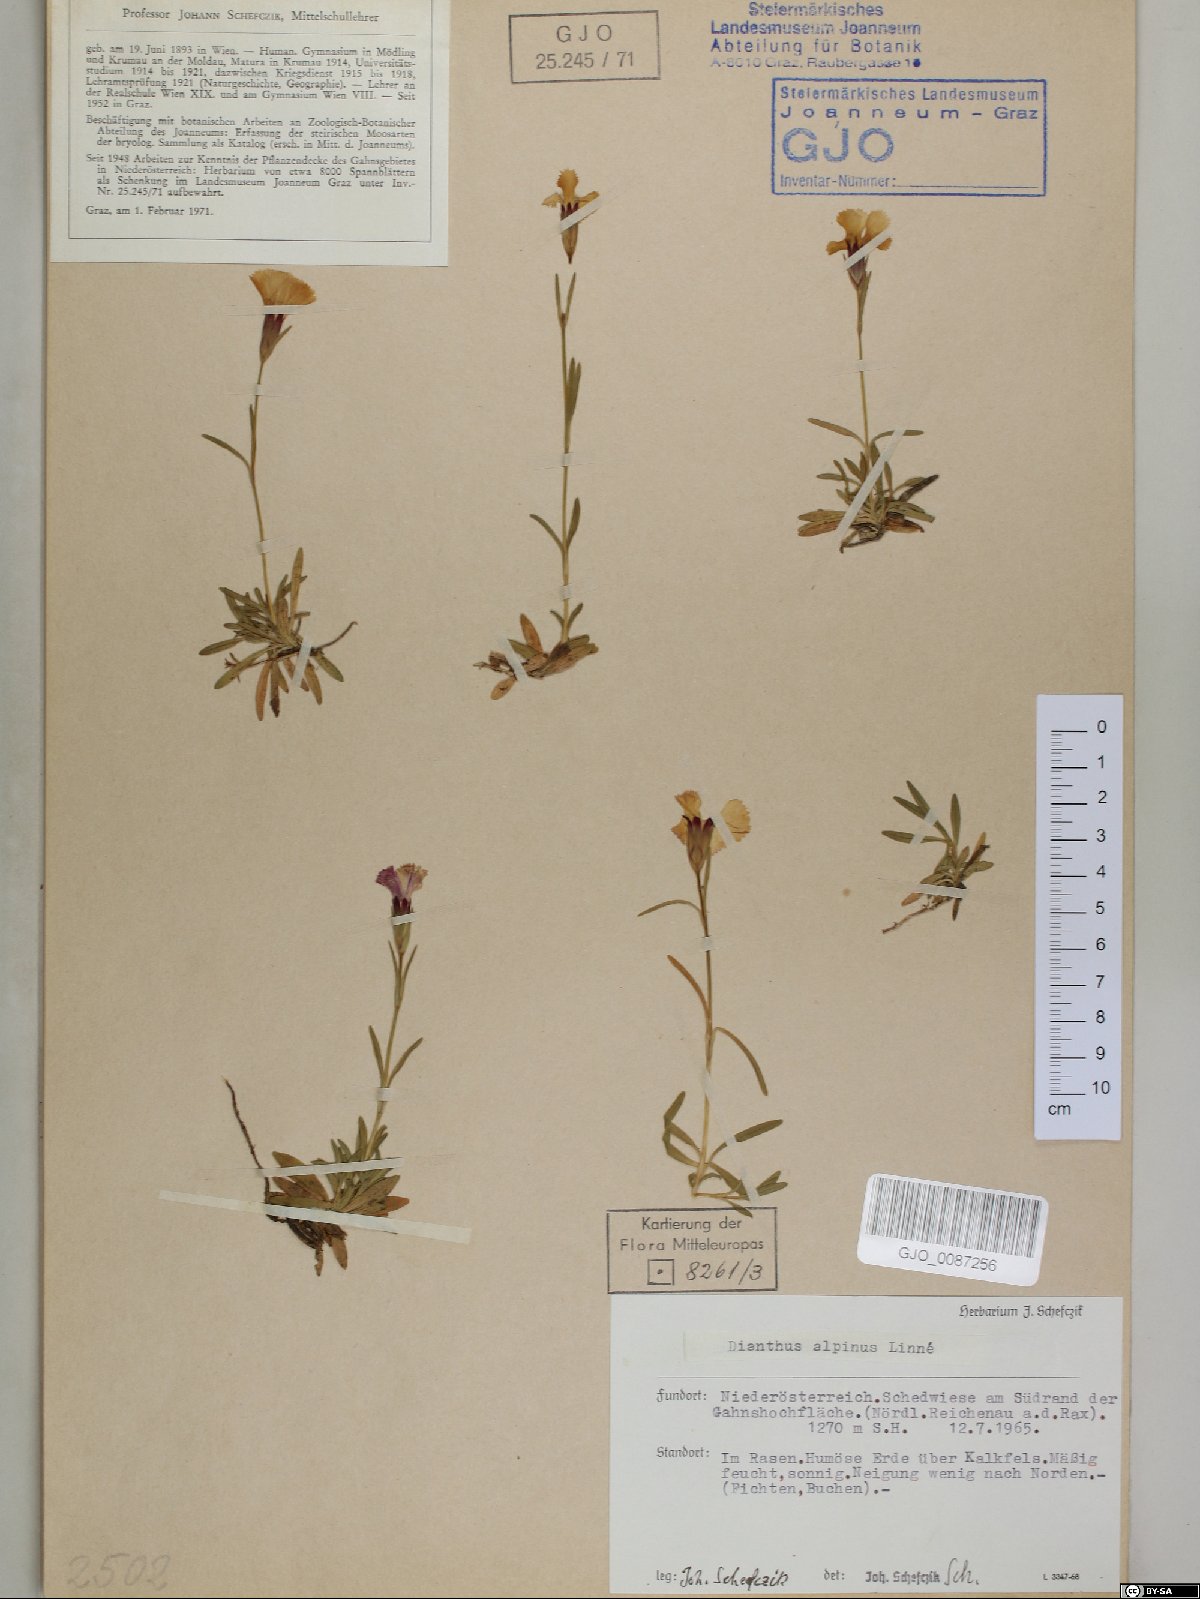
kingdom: Plantae
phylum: Tracheophyta
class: Magnoliopsida
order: Caryophyllales
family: Caryophyllaceae
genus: Dianthus
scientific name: Dianthus alpinus
